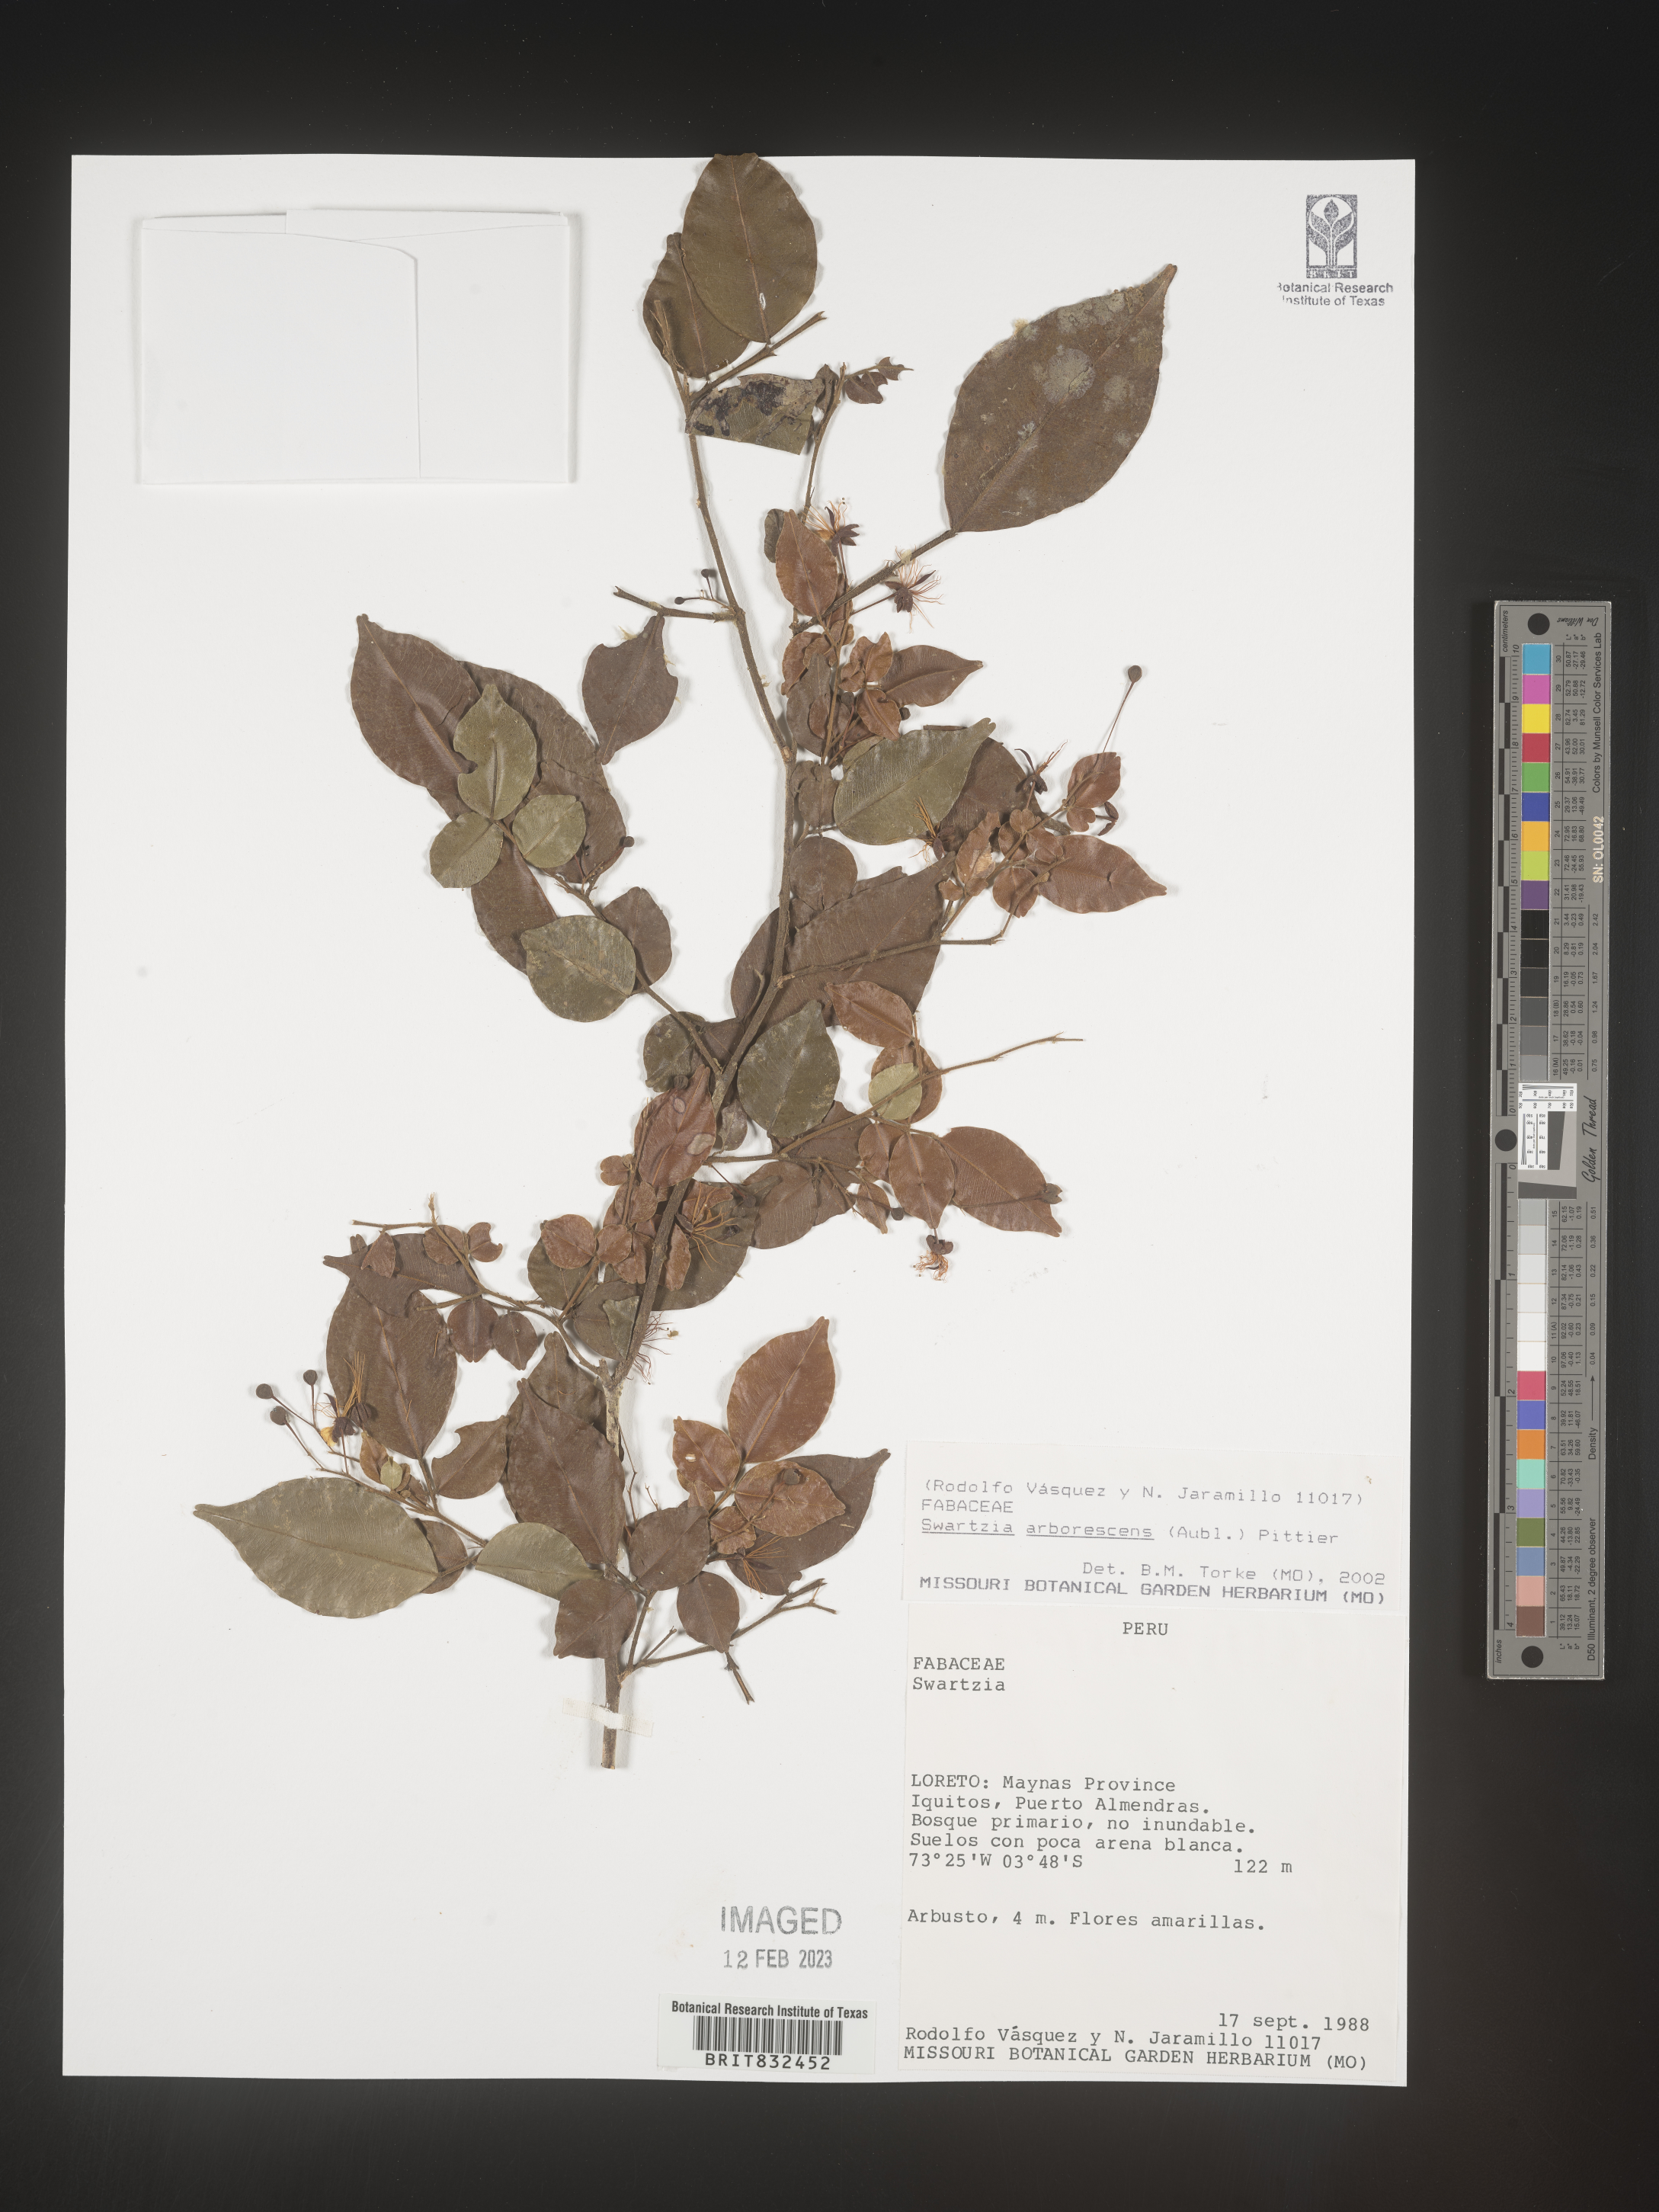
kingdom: Plantae
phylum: Tracheophyta
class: Magnoliopsida
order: Fabales
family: Fabaceae
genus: Swartzia
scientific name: Swartzia
